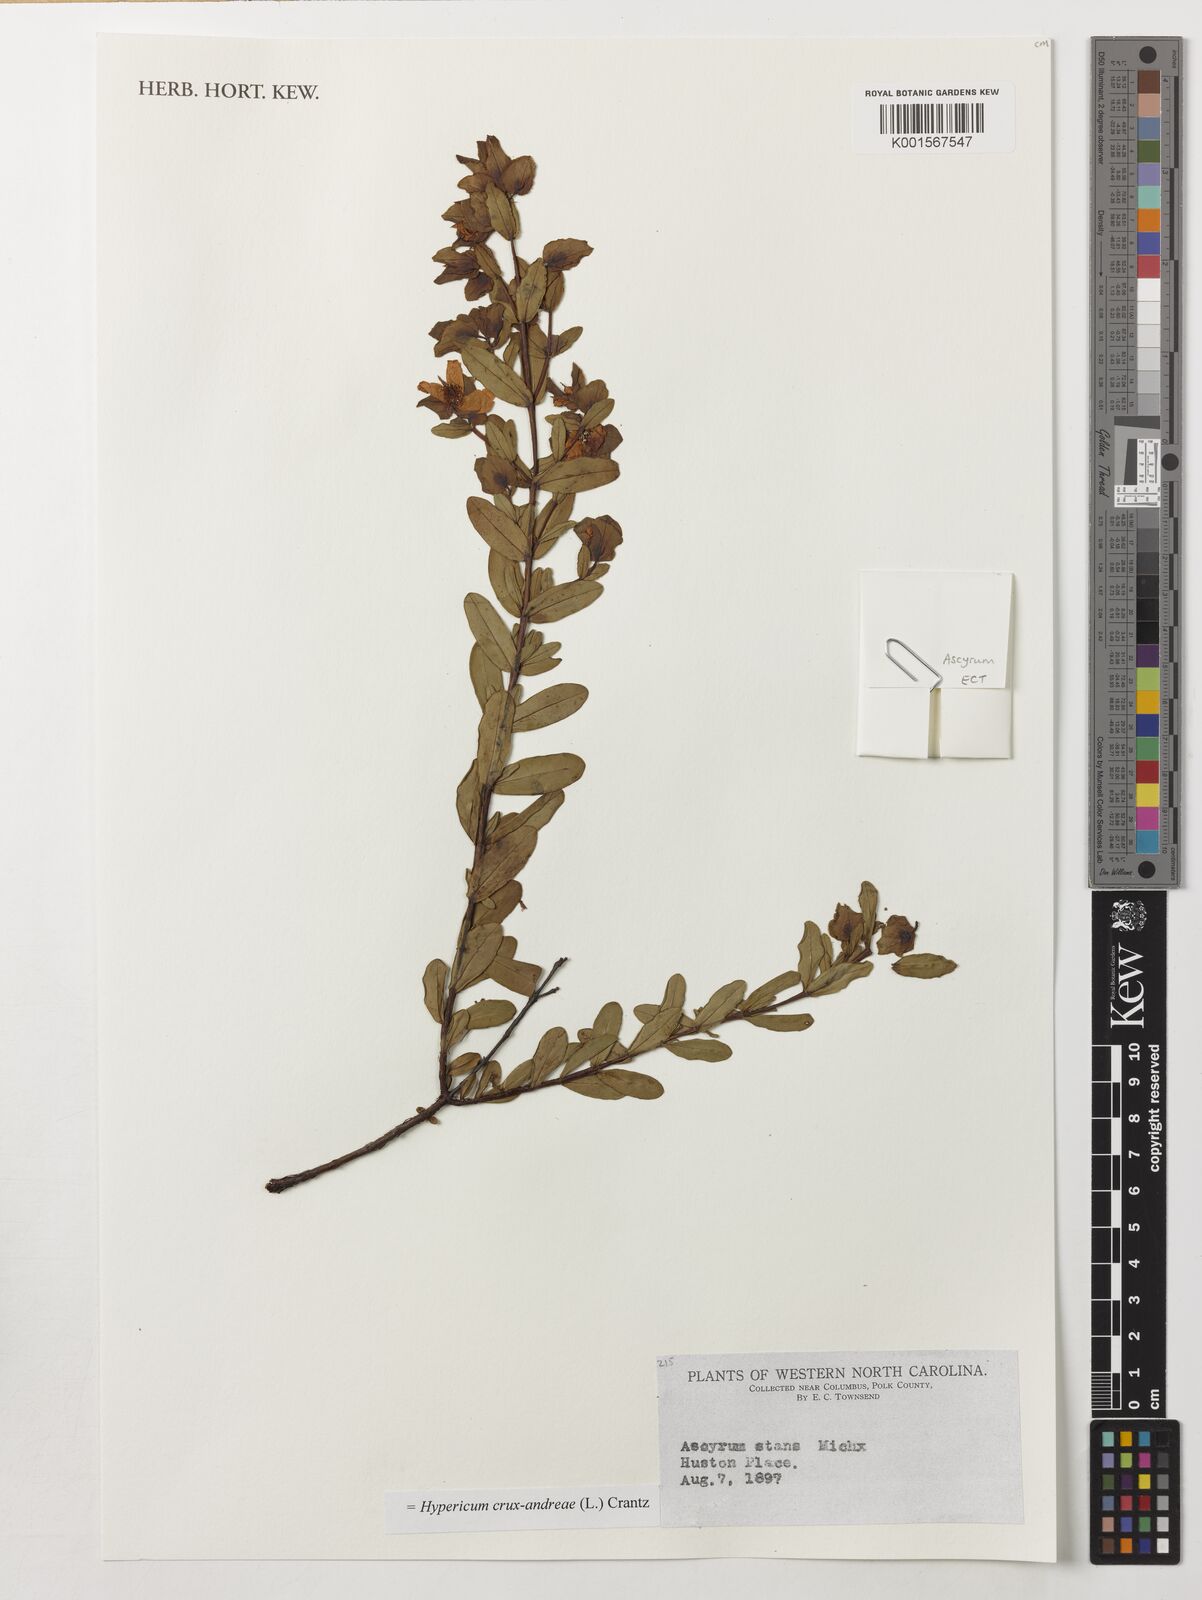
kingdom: Plantae
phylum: Tracheophyta
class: Magnoliopsida
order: Malpighiales
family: Hypericaceae
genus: Hypericum
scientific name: Hypericum crux-andreae
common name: St.-peter's-wort
